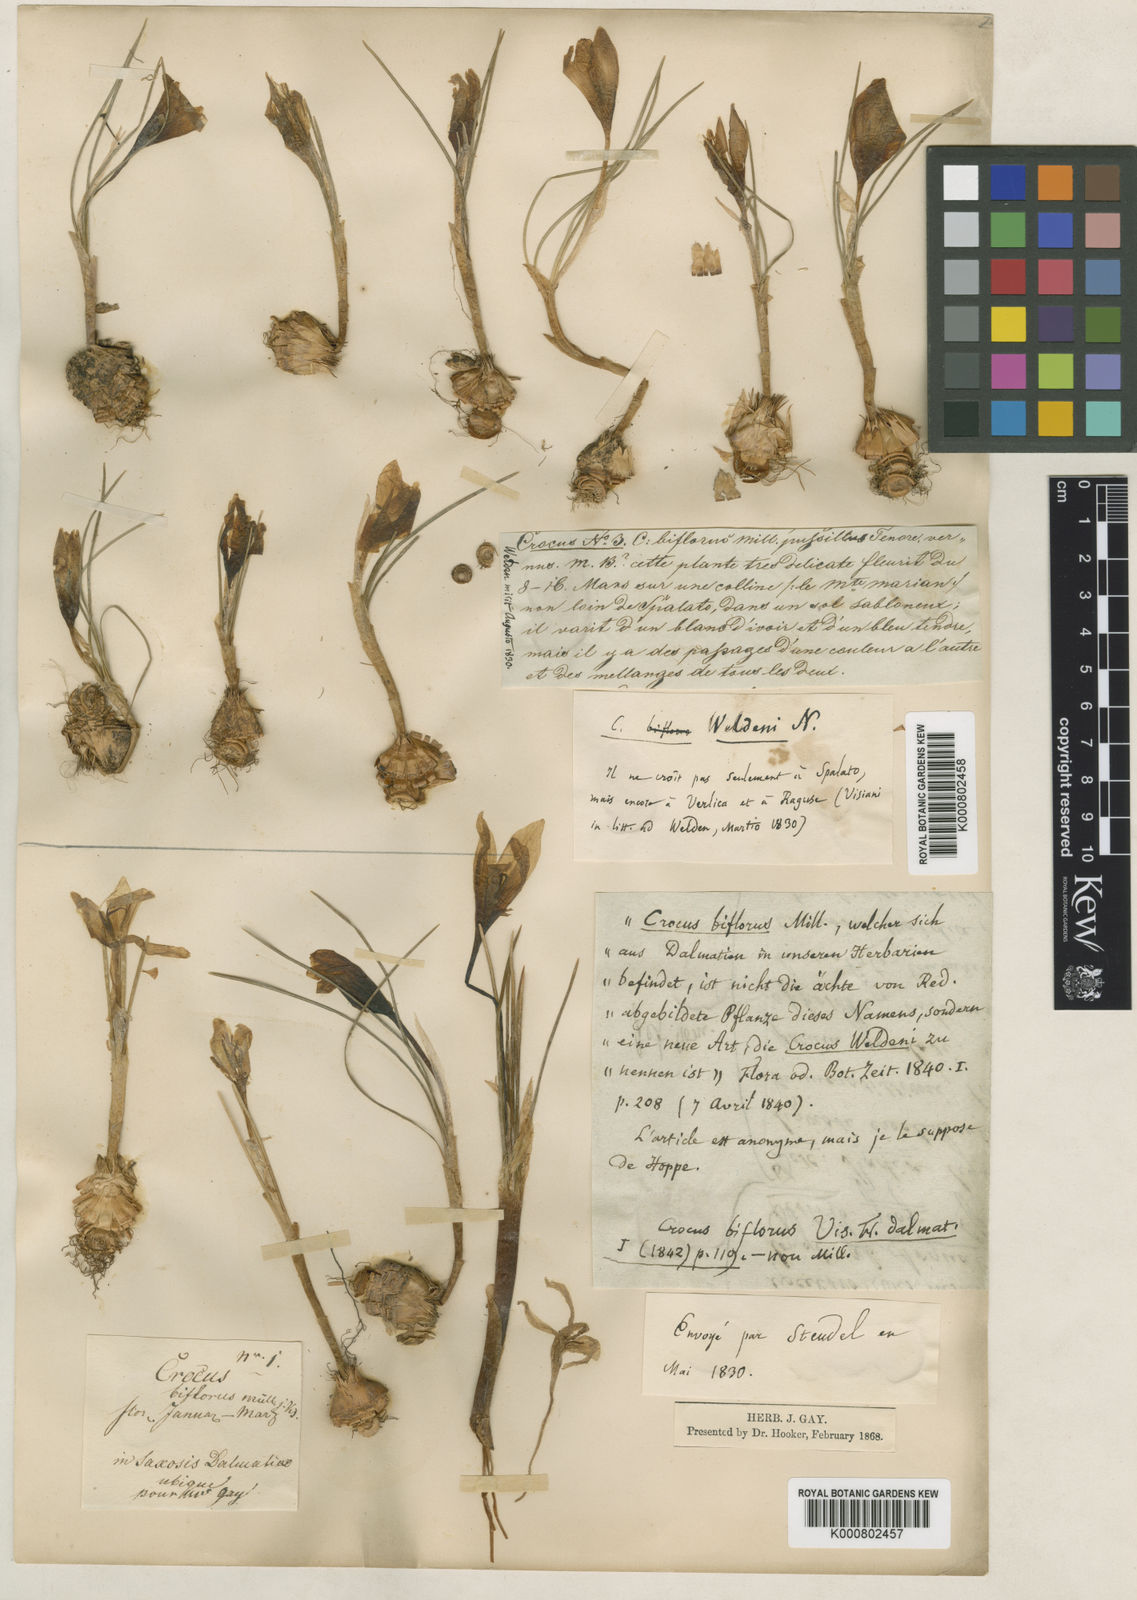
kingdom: Plantae
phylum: Tracheophyta
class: Liliopsida
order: Asparagales
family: Iridaceae
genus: Crocus
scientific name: Crocus biflorus
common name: Silvery crocus
